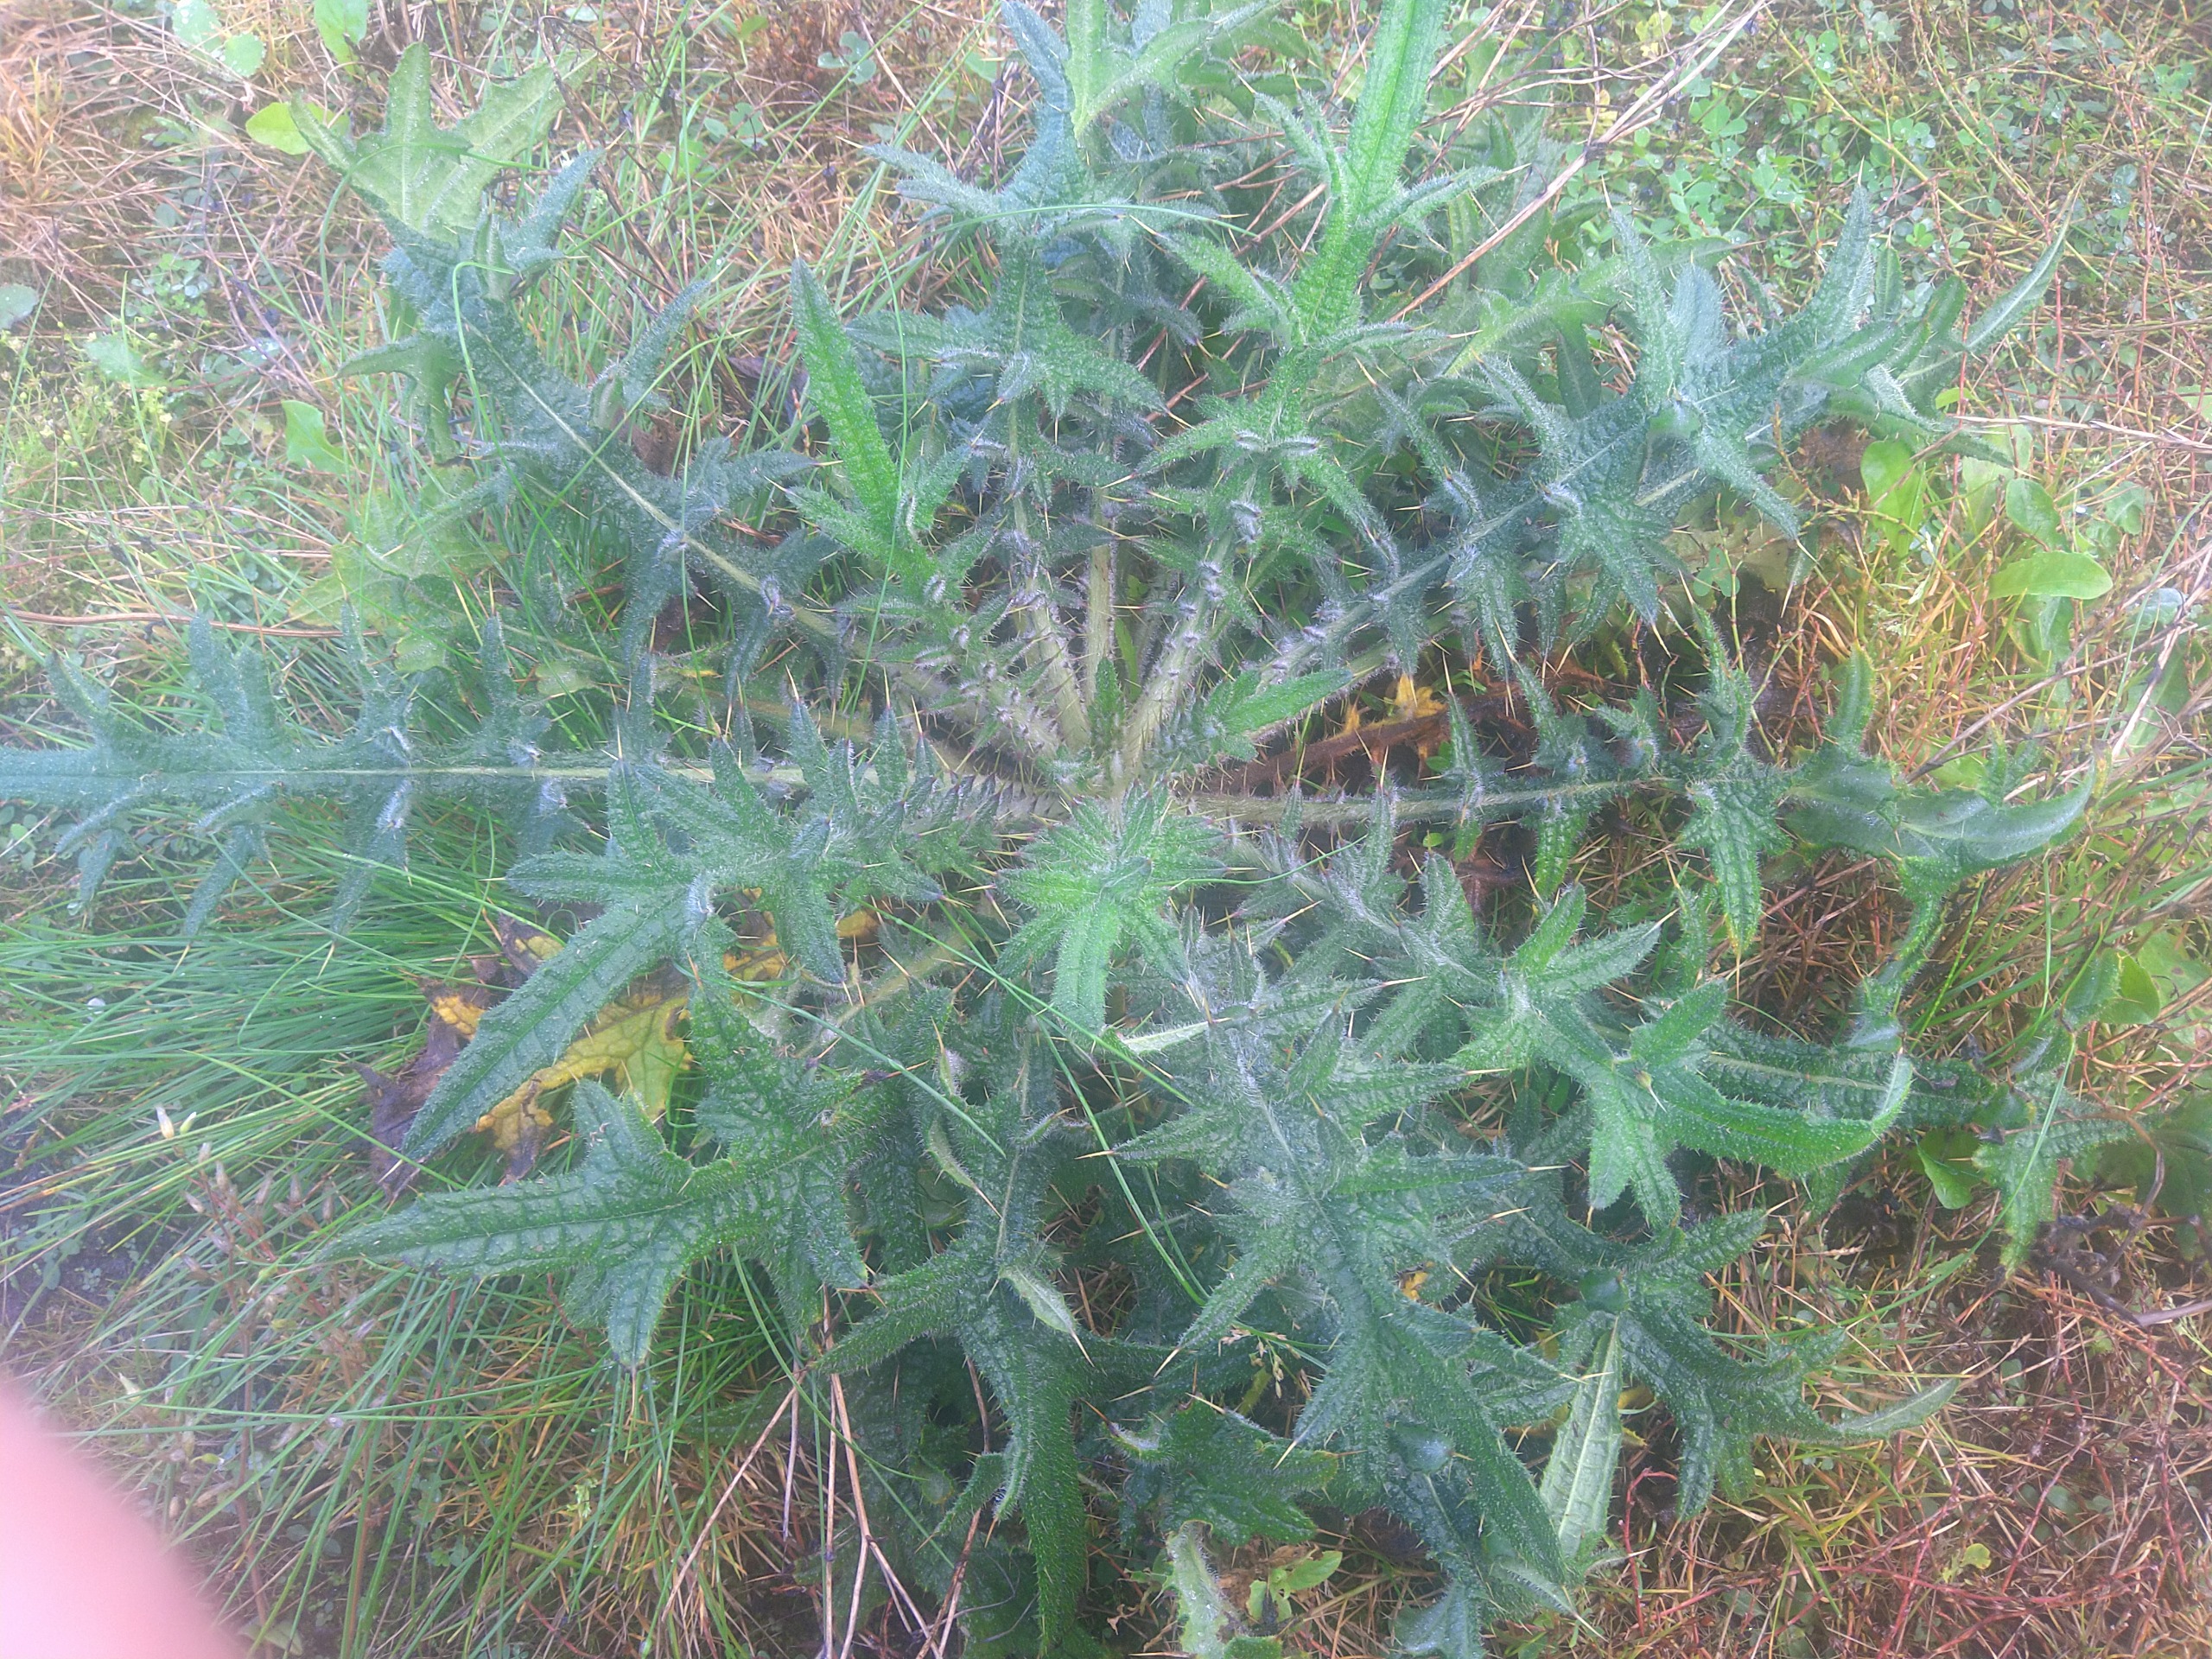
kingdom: Plantae
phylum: Tracheophyta
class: Magnoliopsida
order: Asterales
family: Asteraceae
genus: Cirsium
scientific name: Cirsium vulgare
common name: Horse-tidsel
